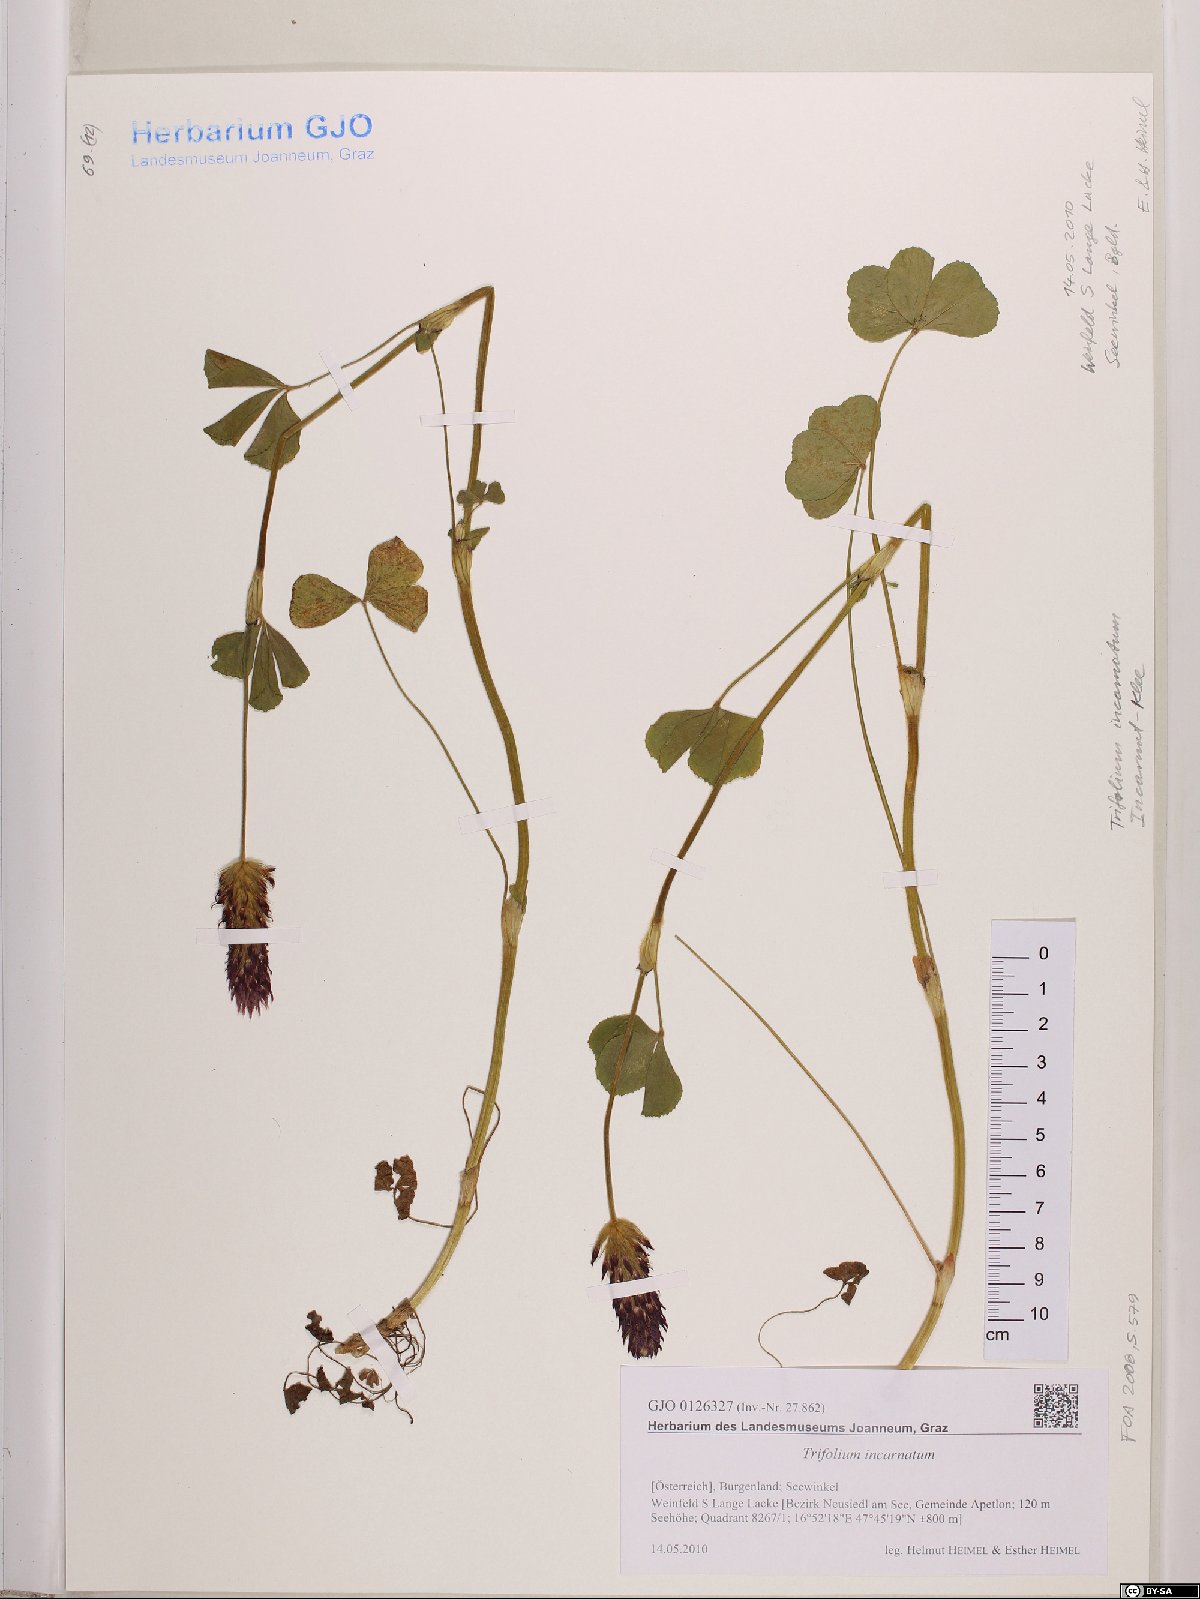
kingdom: Plantae
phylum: Tracheophyta
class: Magnoliopsida
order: Fabales
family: Fabaceae
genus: Trifolium
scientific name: Trifolium incarnatum
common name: Crimson clover
